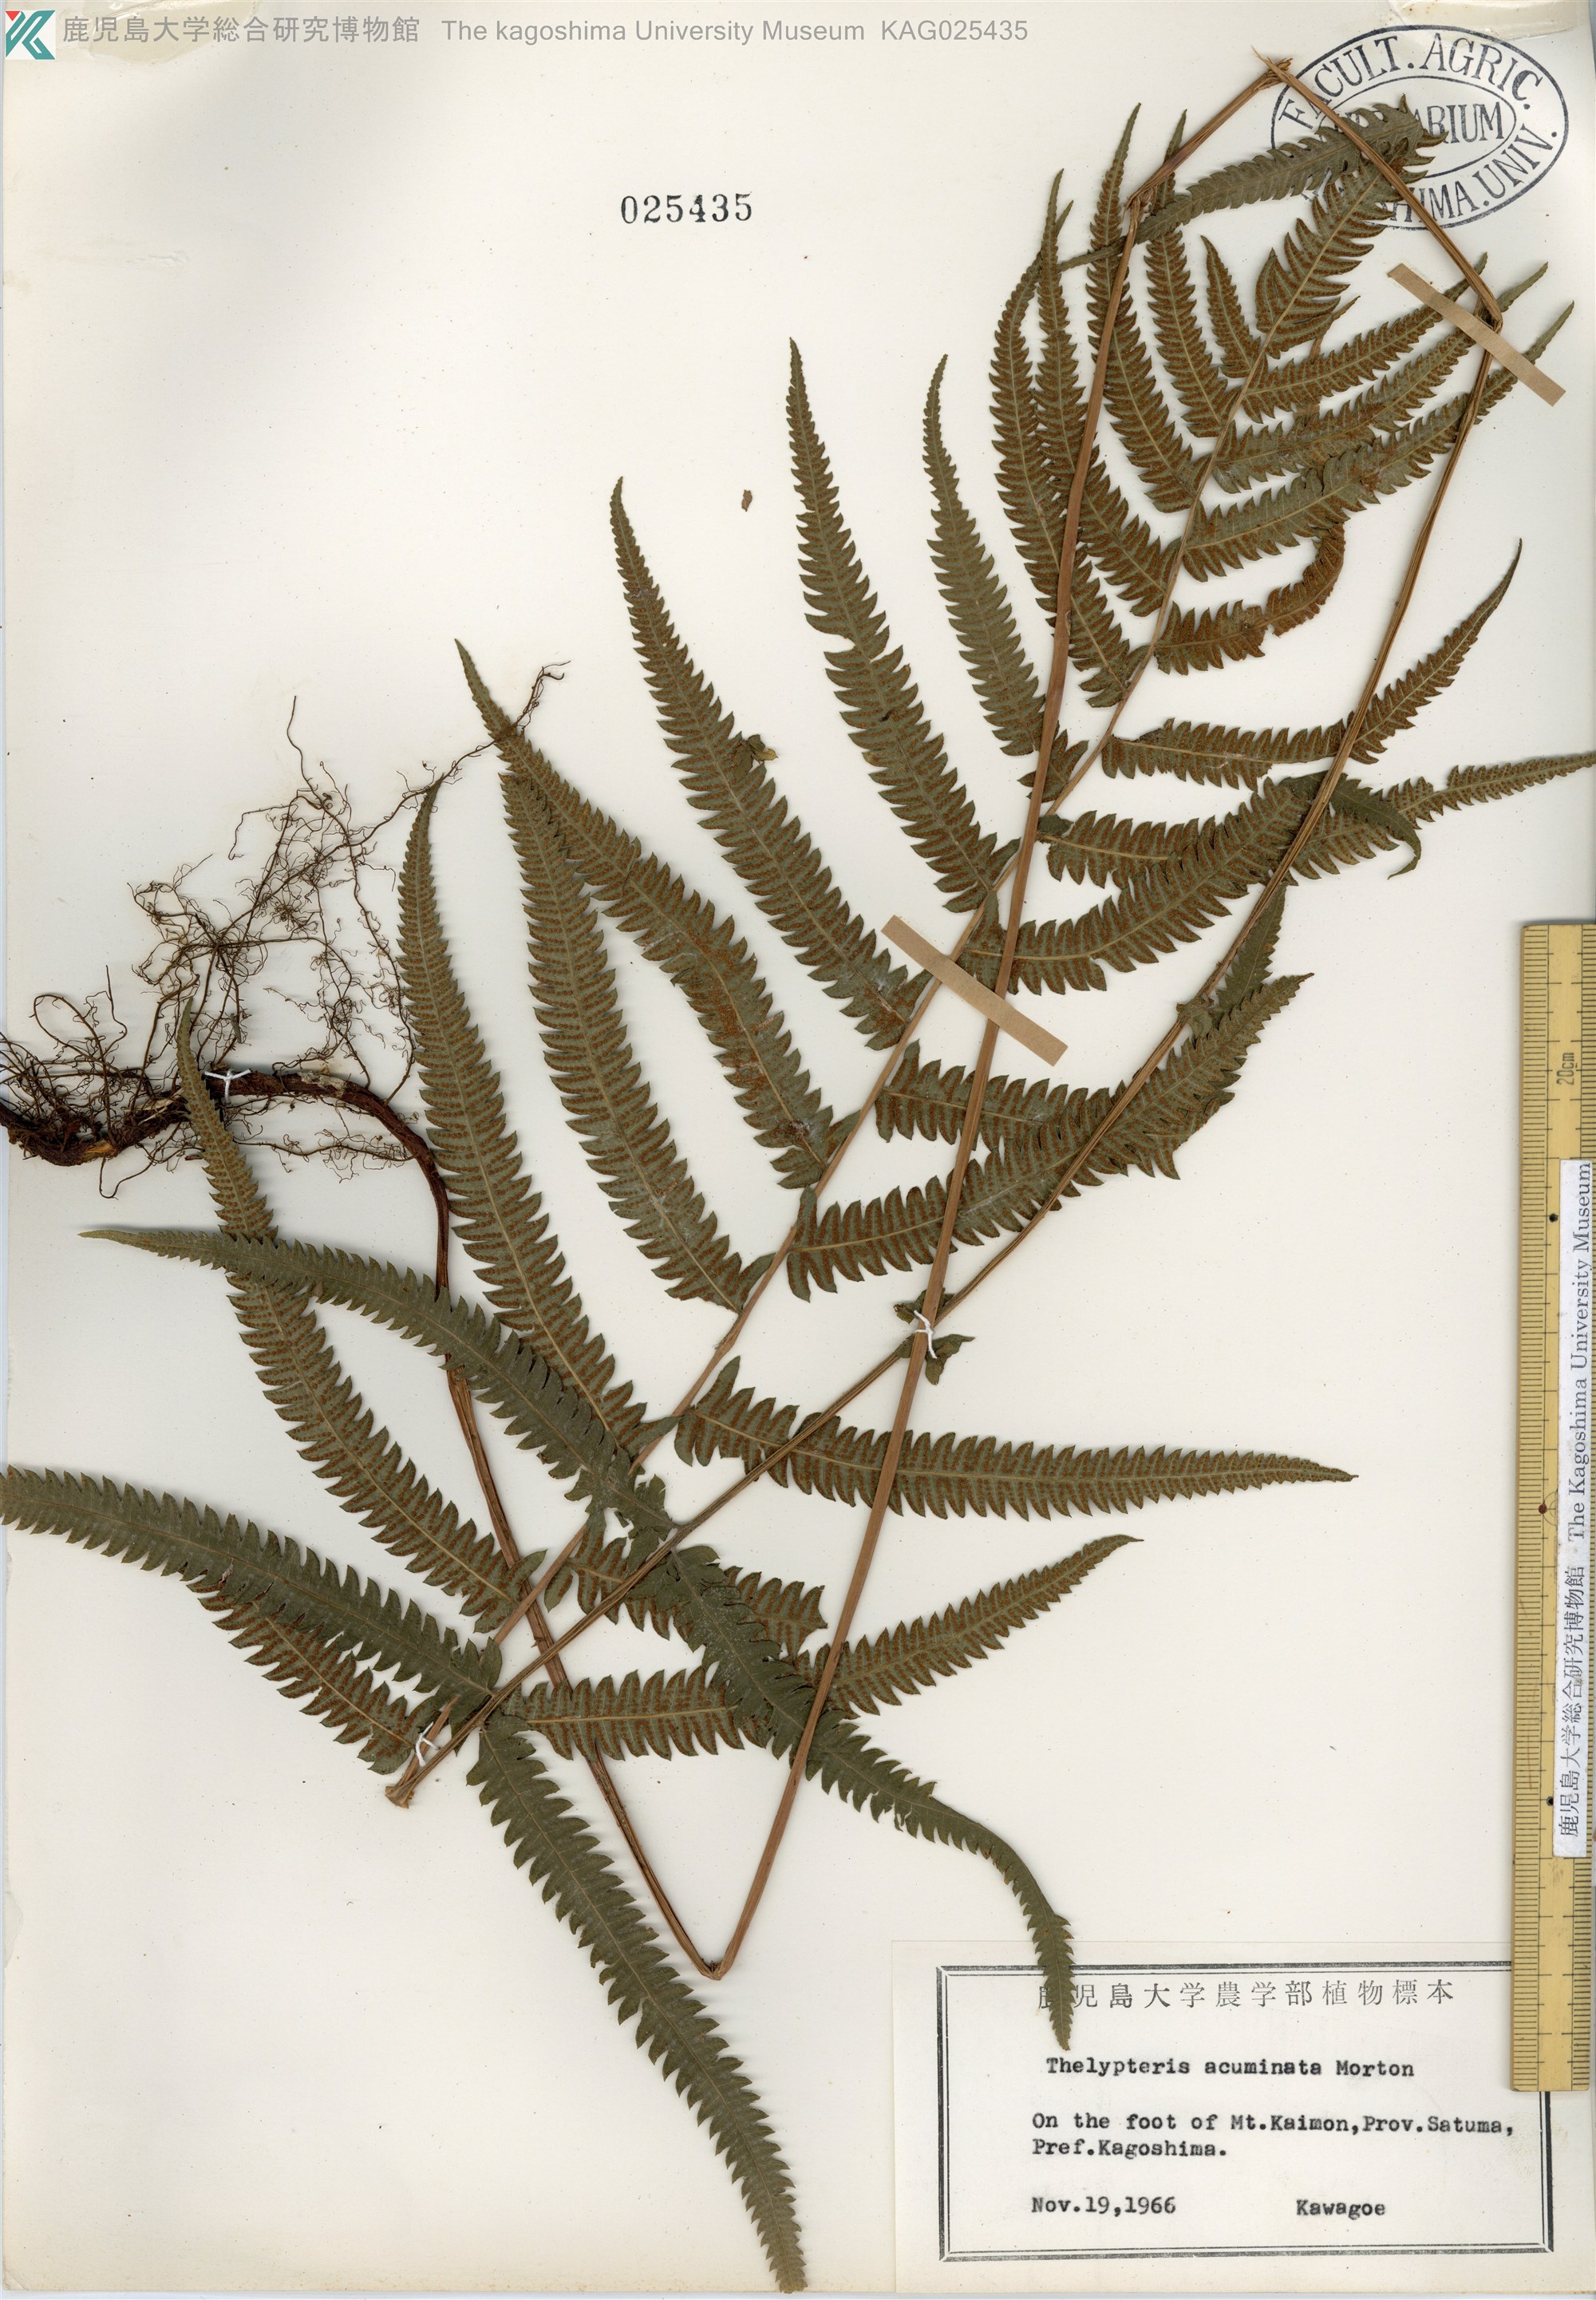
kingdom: Plantae
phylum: Tracheophyta
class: Polypodiopsida
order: Polypodiales
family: Thelypteridaceae
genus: Christella
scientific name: Christella acuminata
